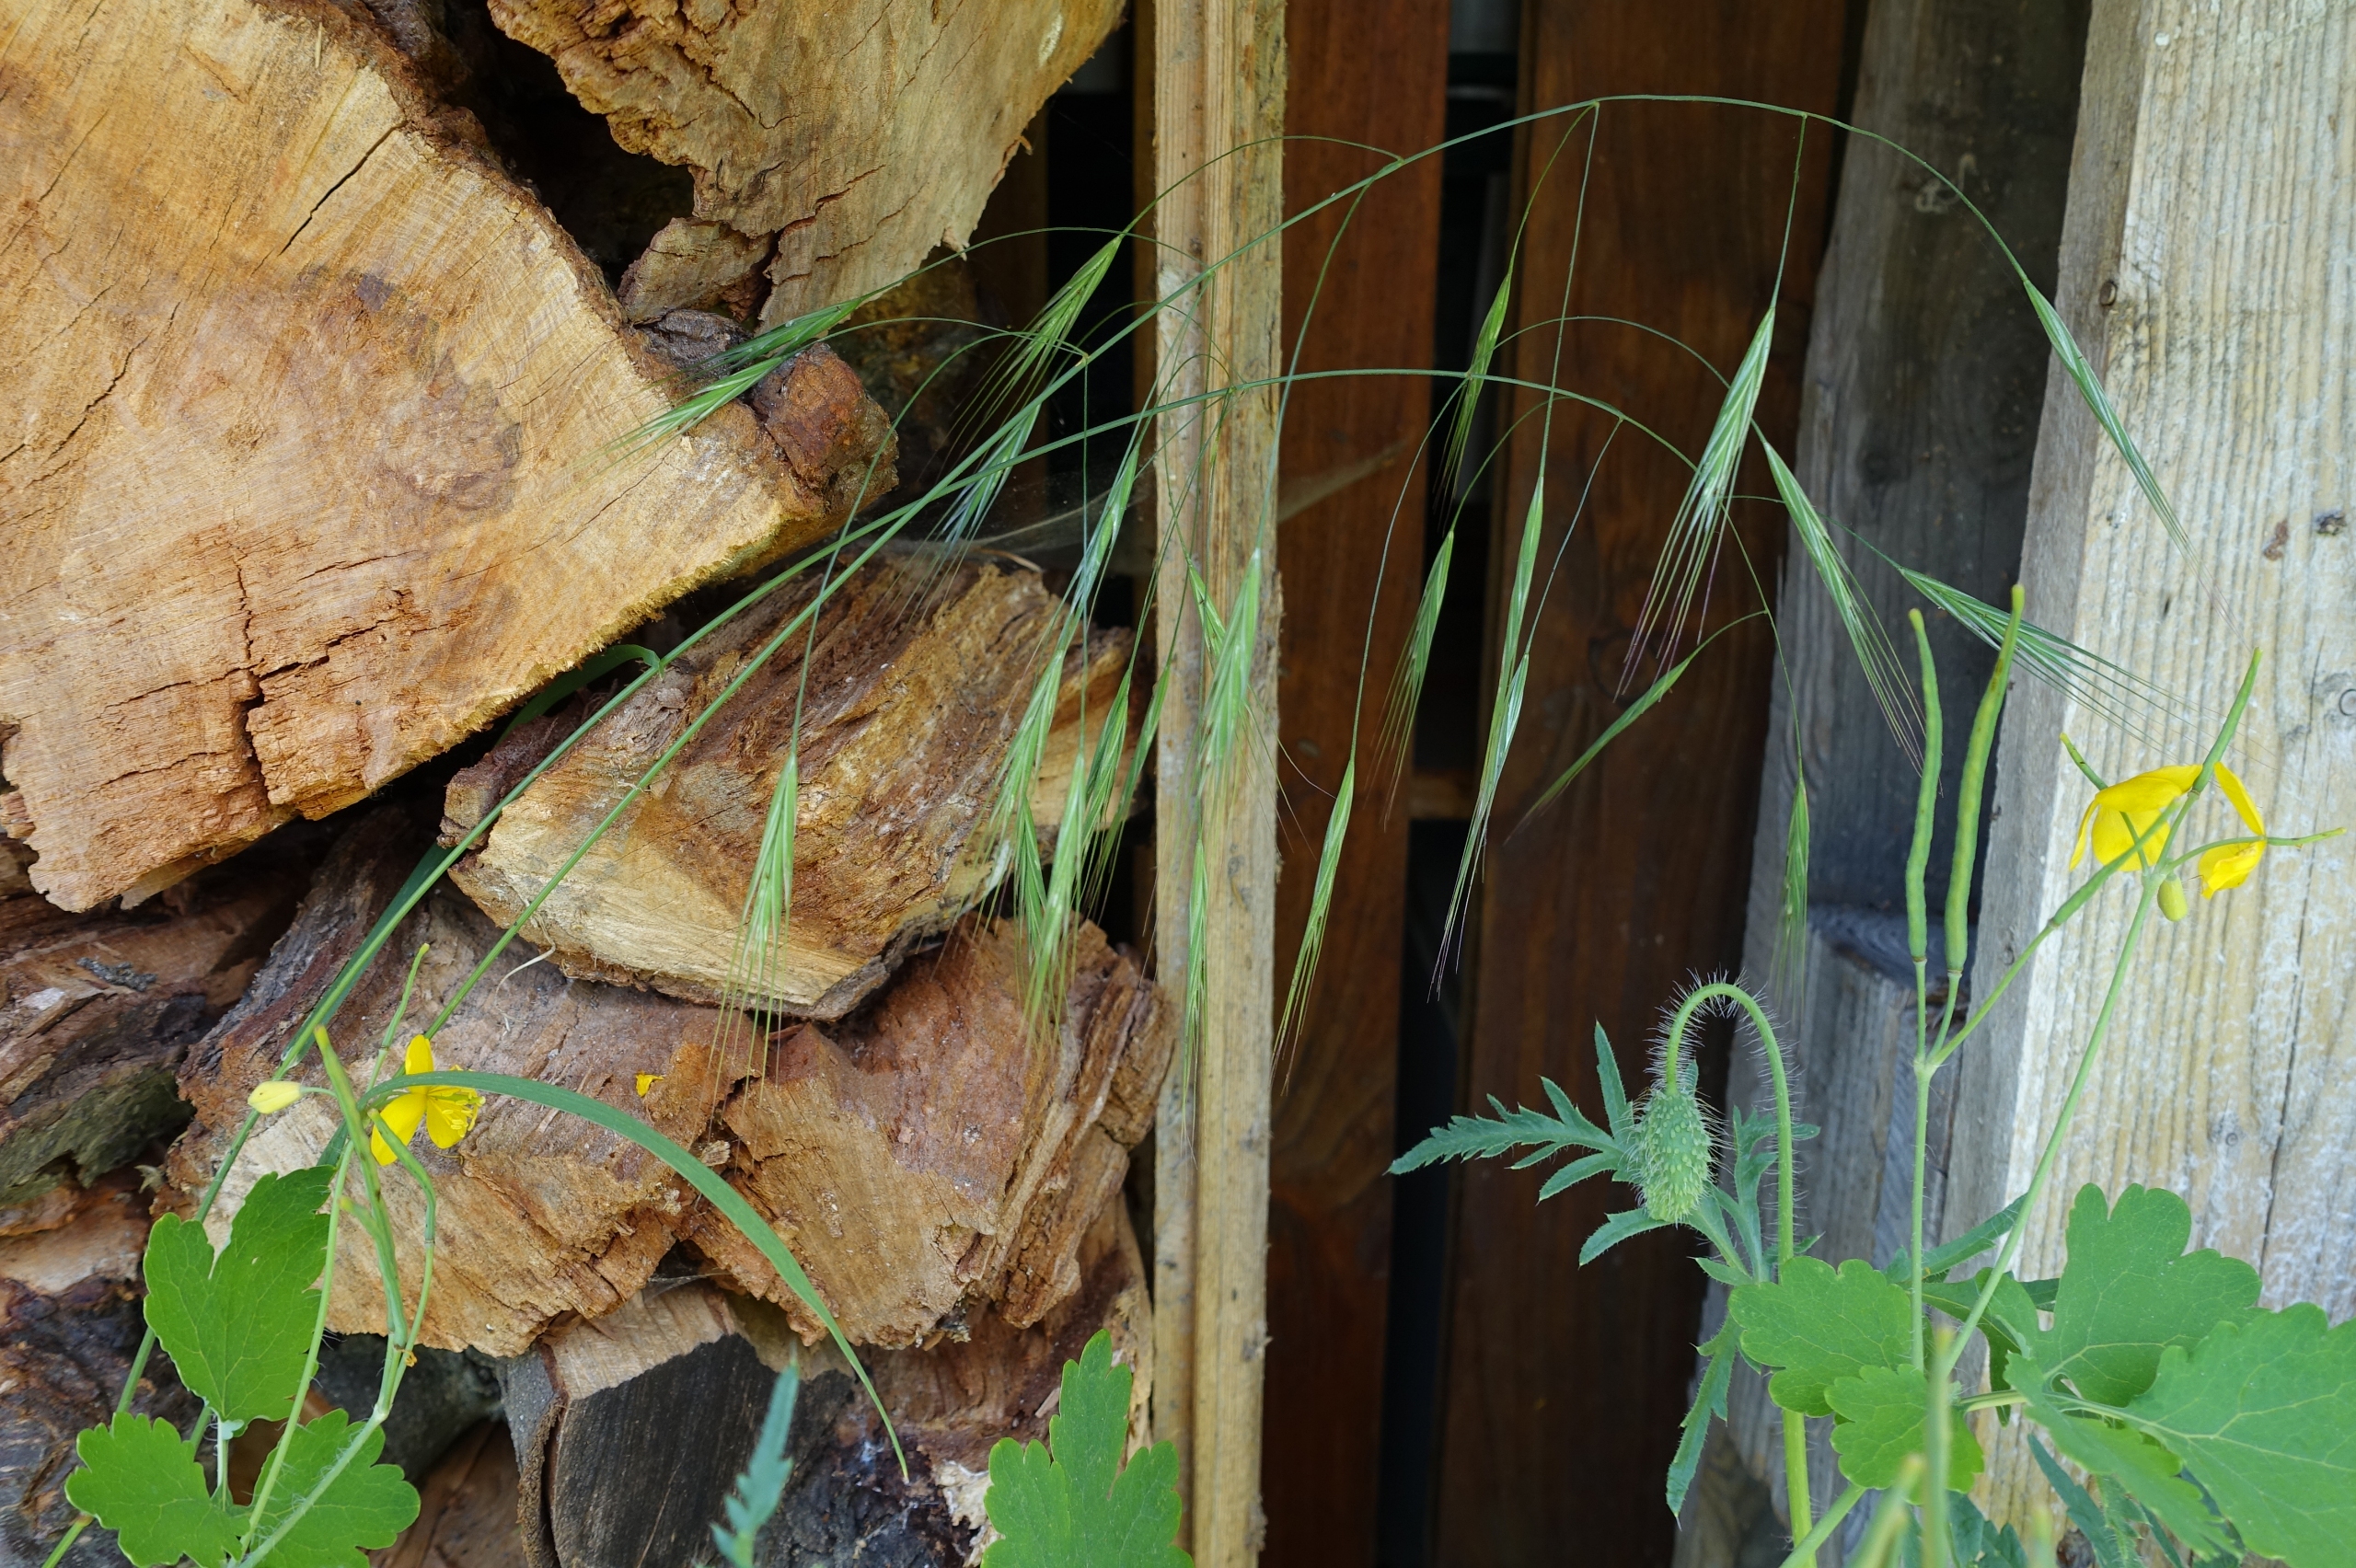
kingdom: Plantae
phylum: Tracheophyta
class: Liliopsida
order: Poales
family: Poaceae
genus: Bromus
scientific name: Bromus sterilis
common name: Gold hejre
